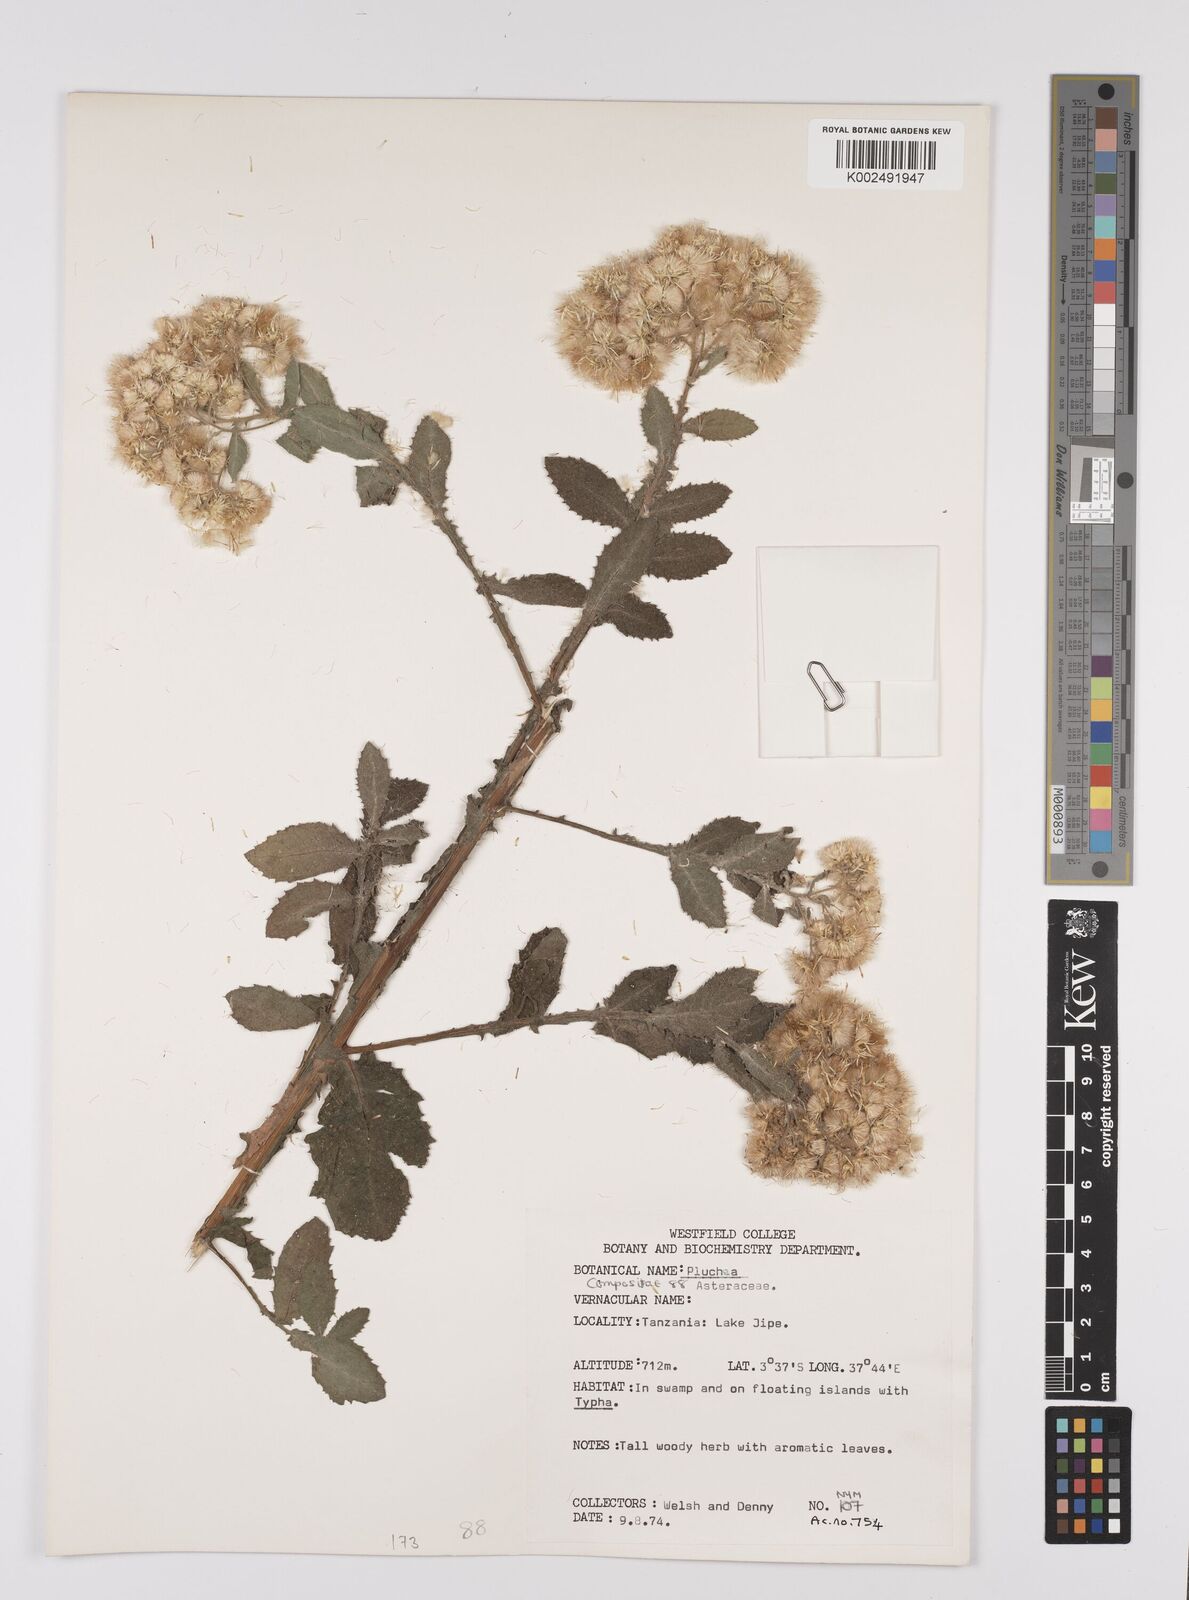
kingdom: Plantae
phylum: Tracheophyta
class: Magnoliopsida
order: Asterales
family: Asteraceae
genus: Pluchea
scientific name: Pluchea
